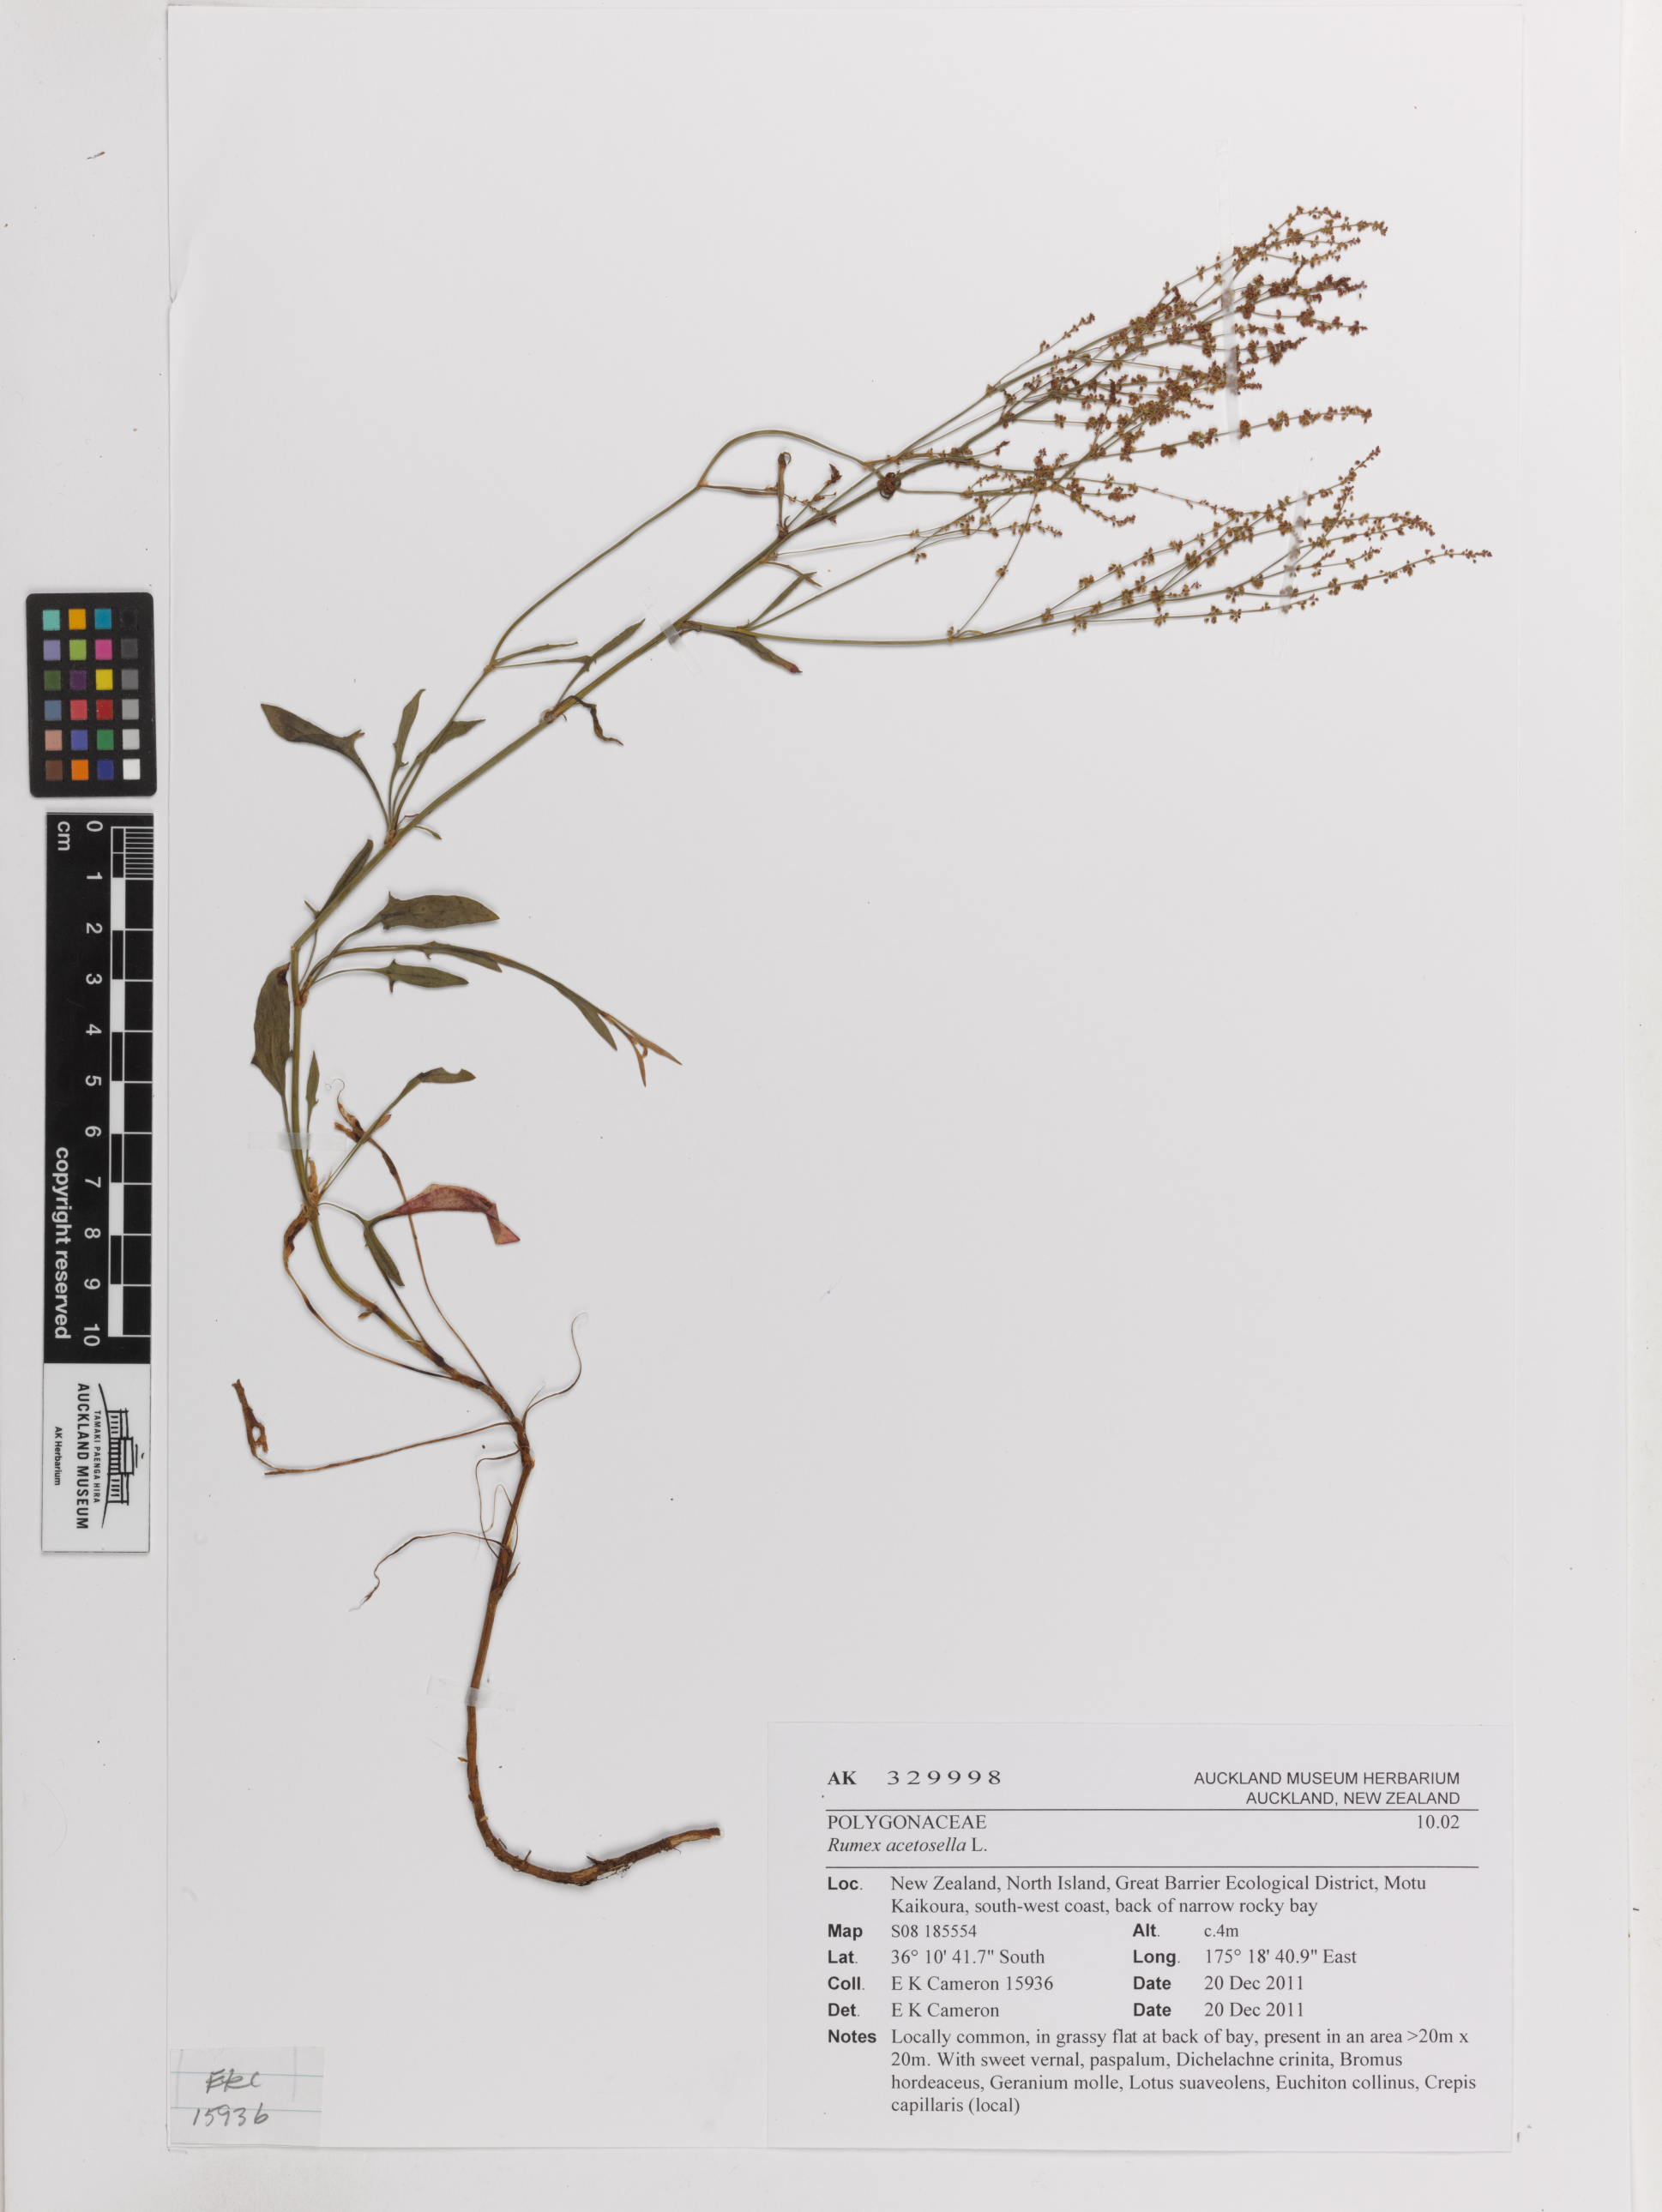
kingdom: Plantae
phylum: Tracheophyta
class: Magnoliopsida
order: Caryophyllales
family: Polygonaceae
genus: Rumex
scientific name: Rumex acetosella
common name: Common sheep sorrel
